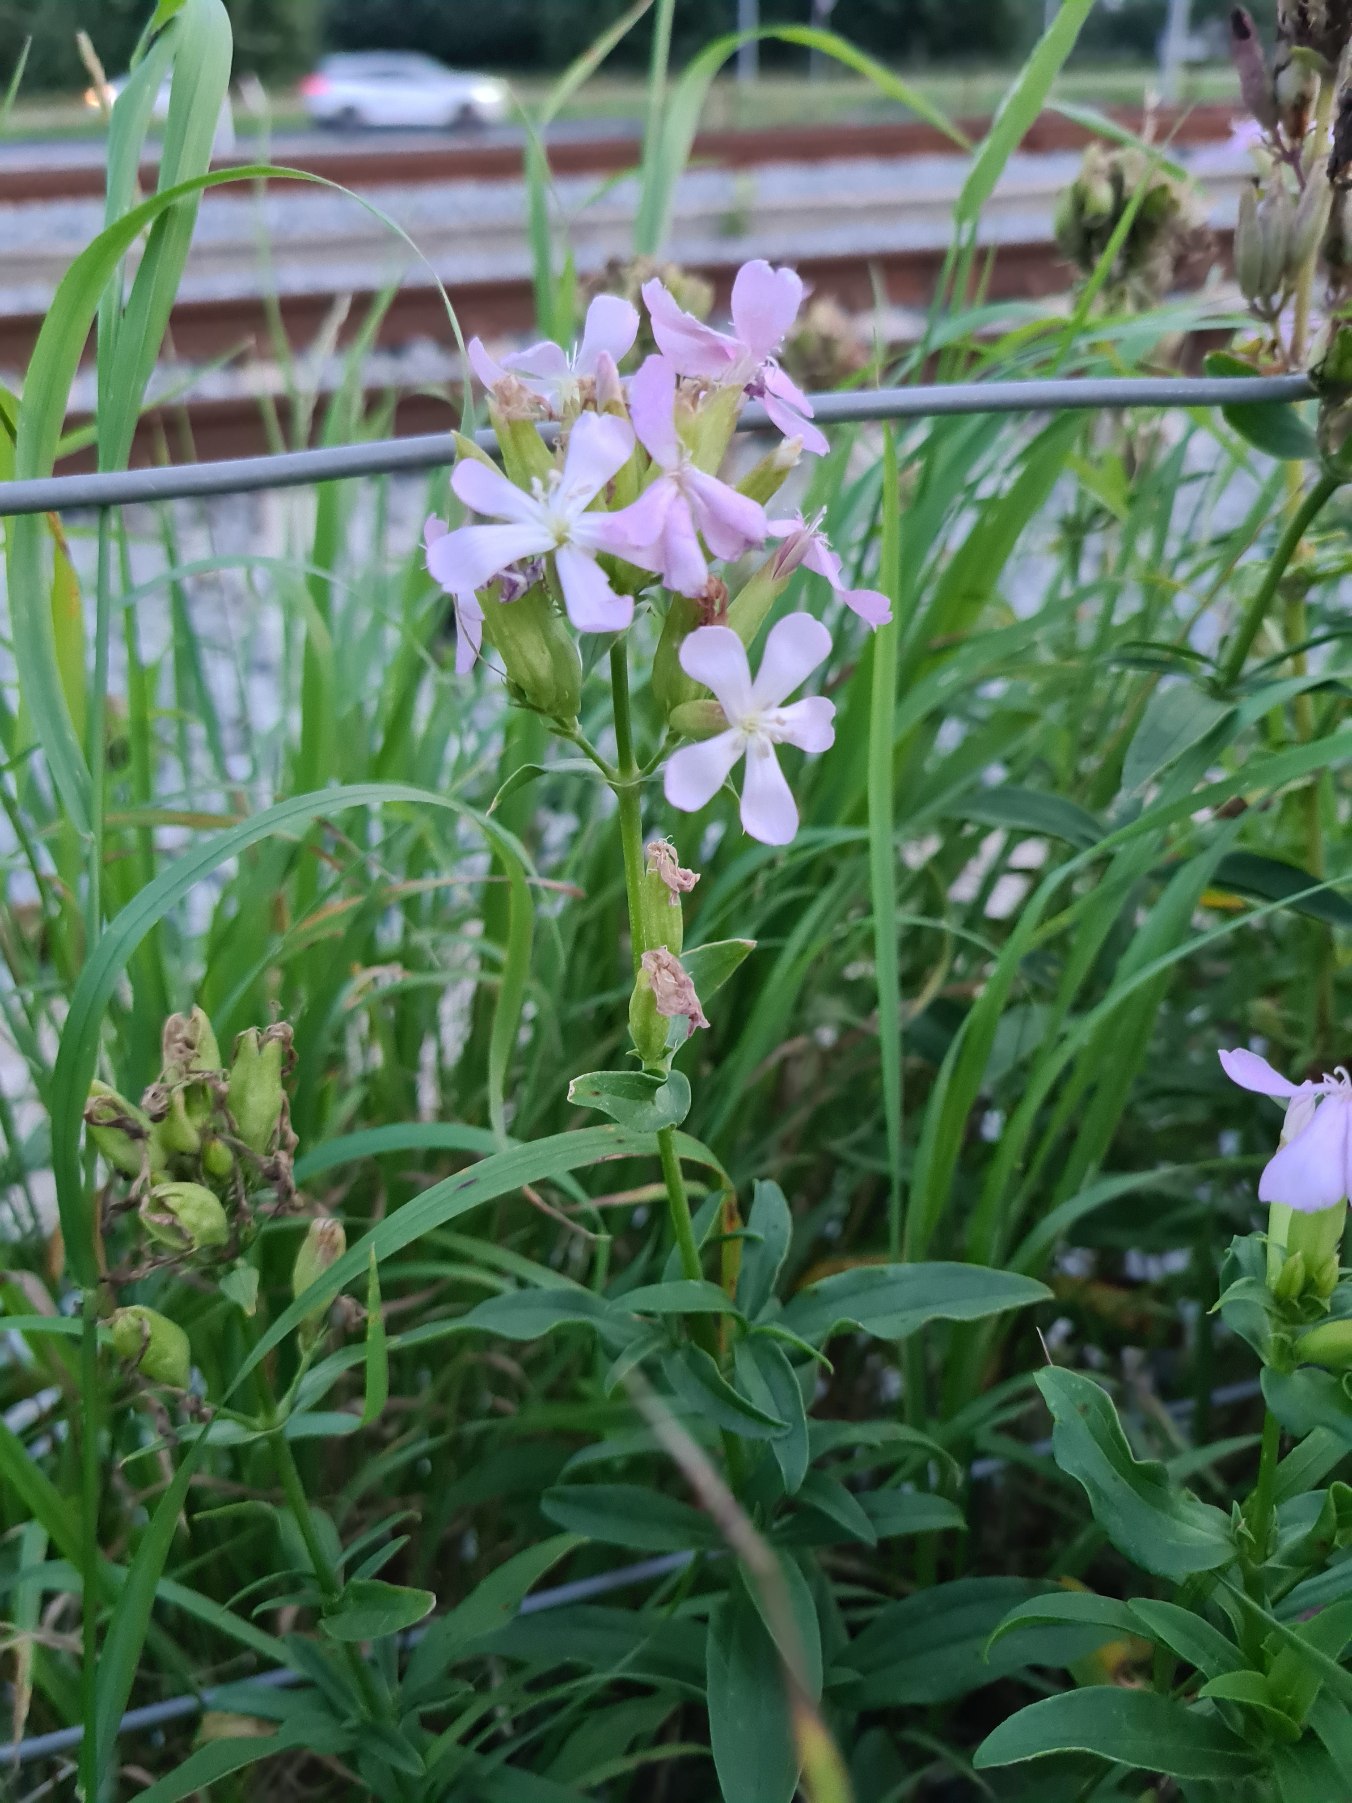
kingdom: Plantae
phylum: Tracheophyta
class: Magnoliopsida
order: Caryophyllales
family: Caryophyllaceae
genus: Saponaria
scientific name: Saponaria officinalis
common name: Sæbeurt
